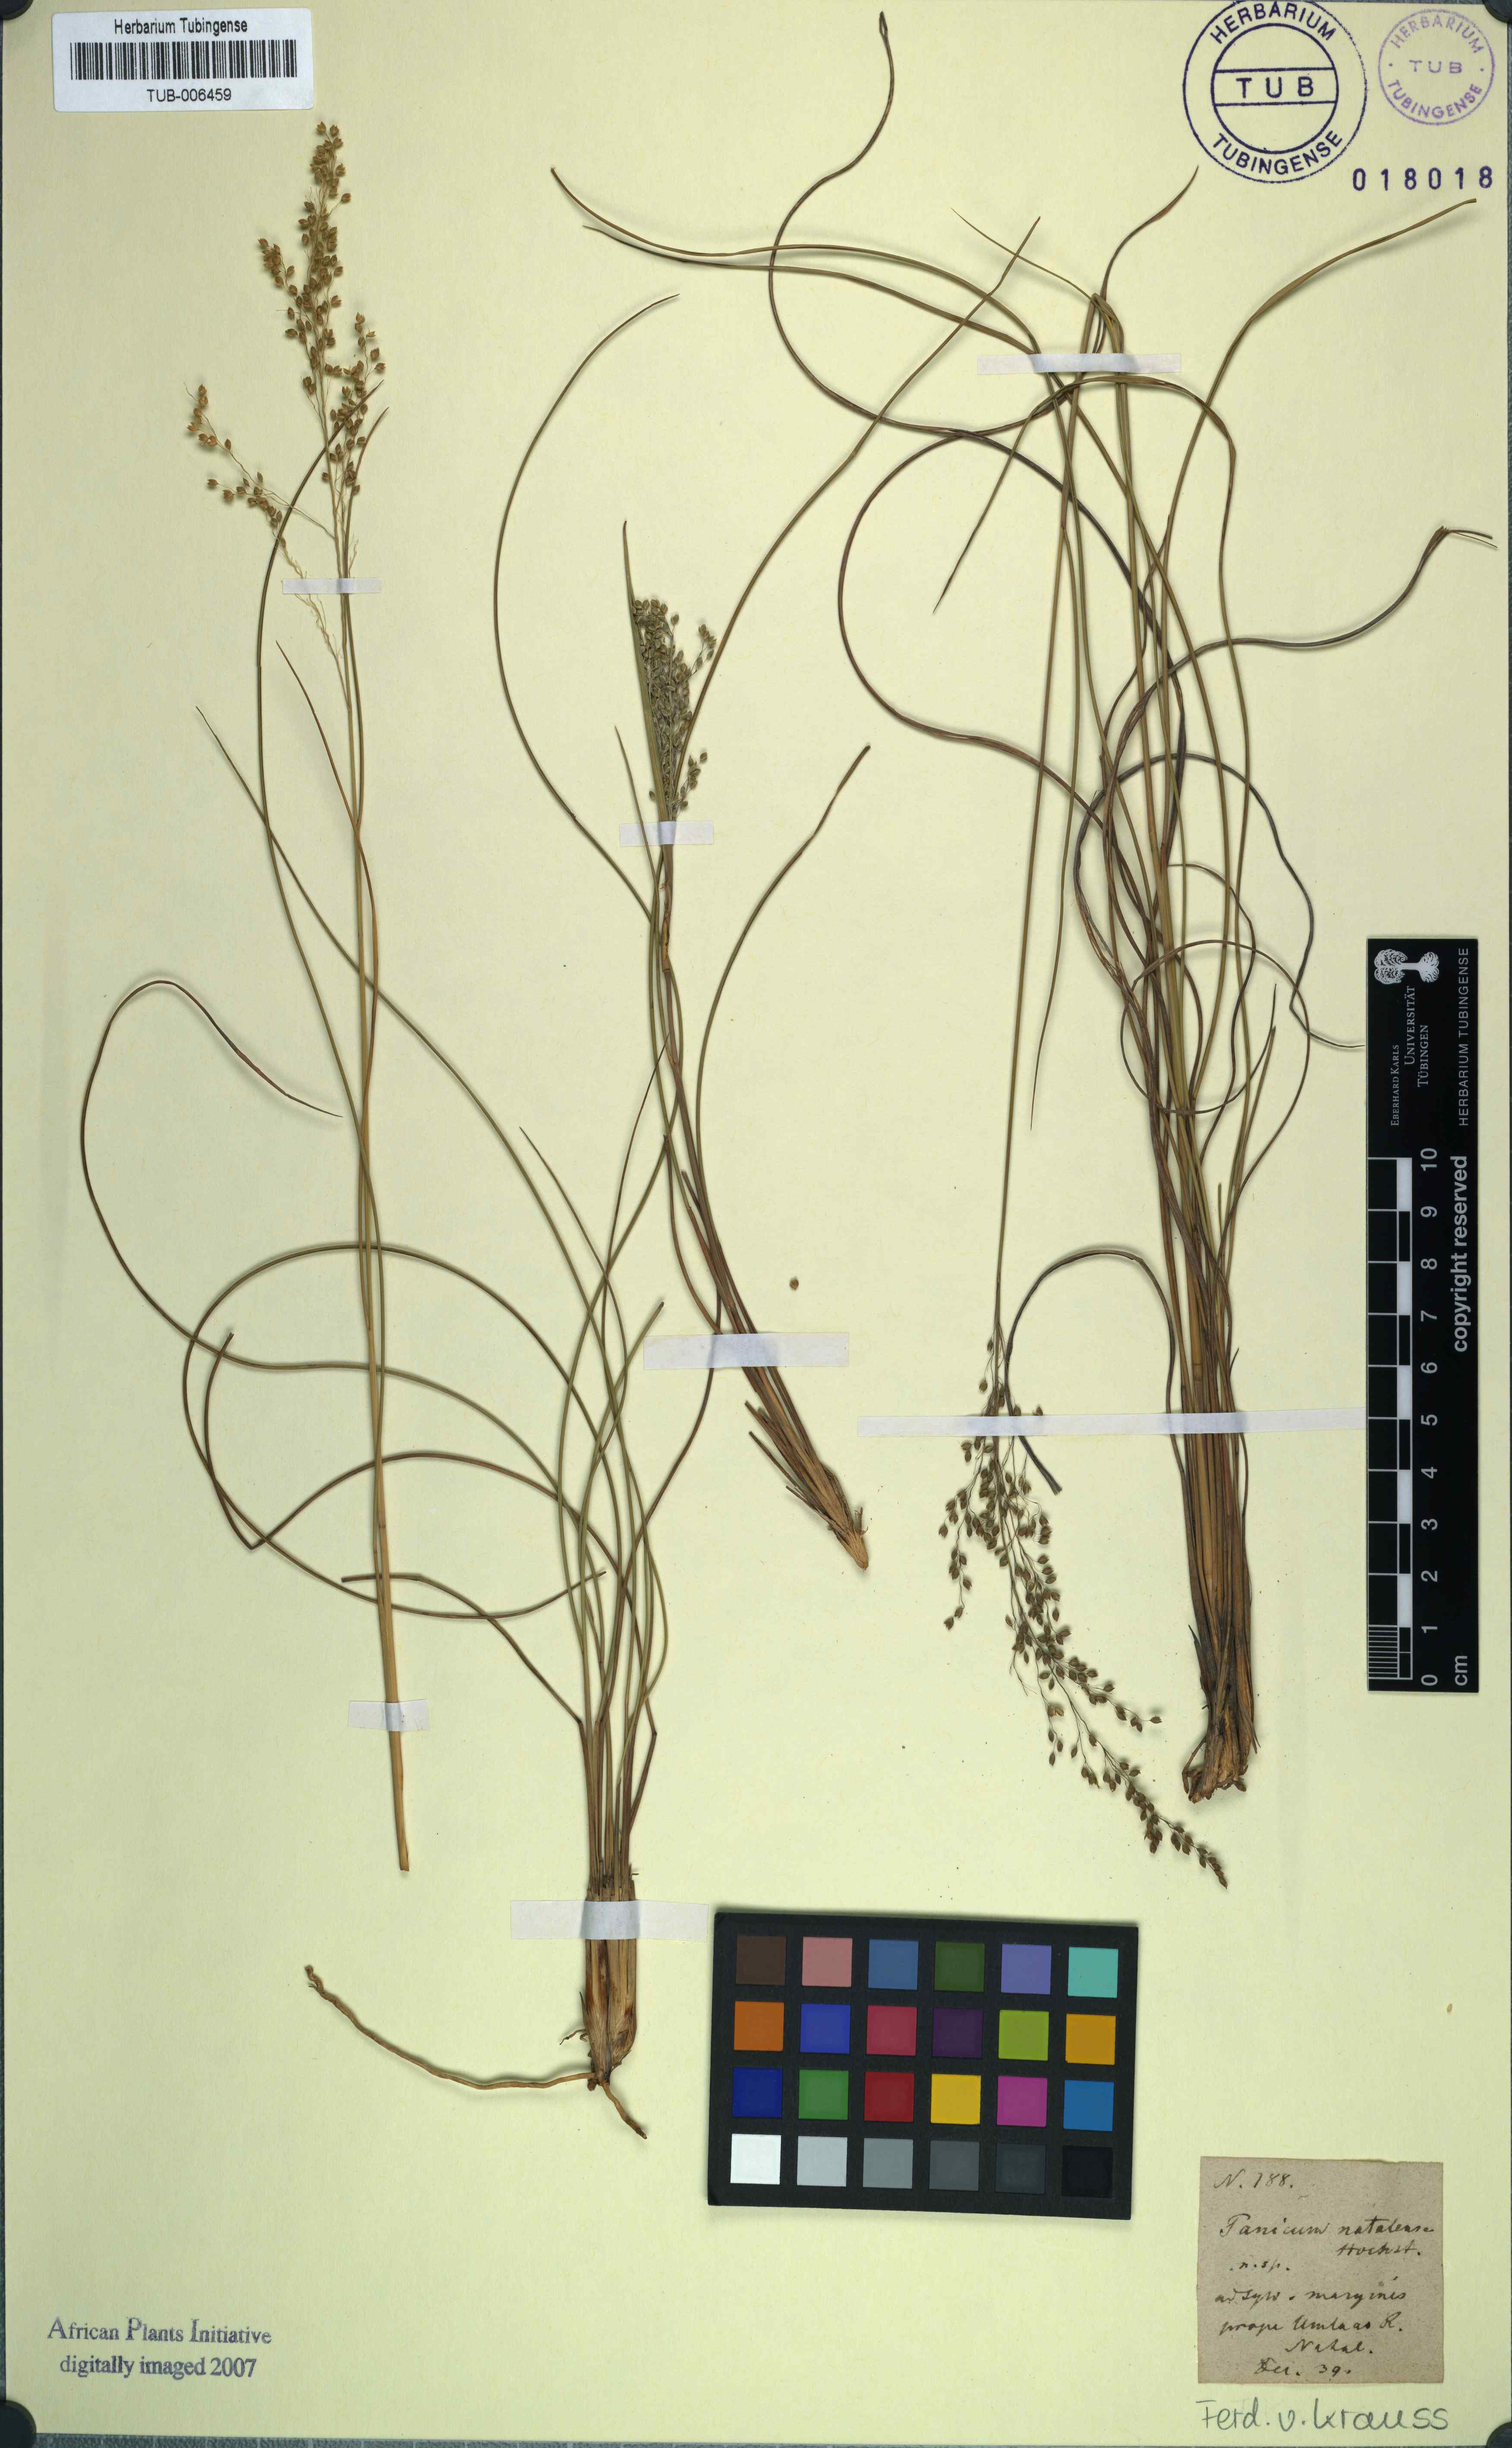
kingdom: Plantae
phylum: Tracheophyta
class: Liliopsida
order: Poales
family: Poaceae
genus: Trichanthecium
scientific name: Trichanthecium natalense
